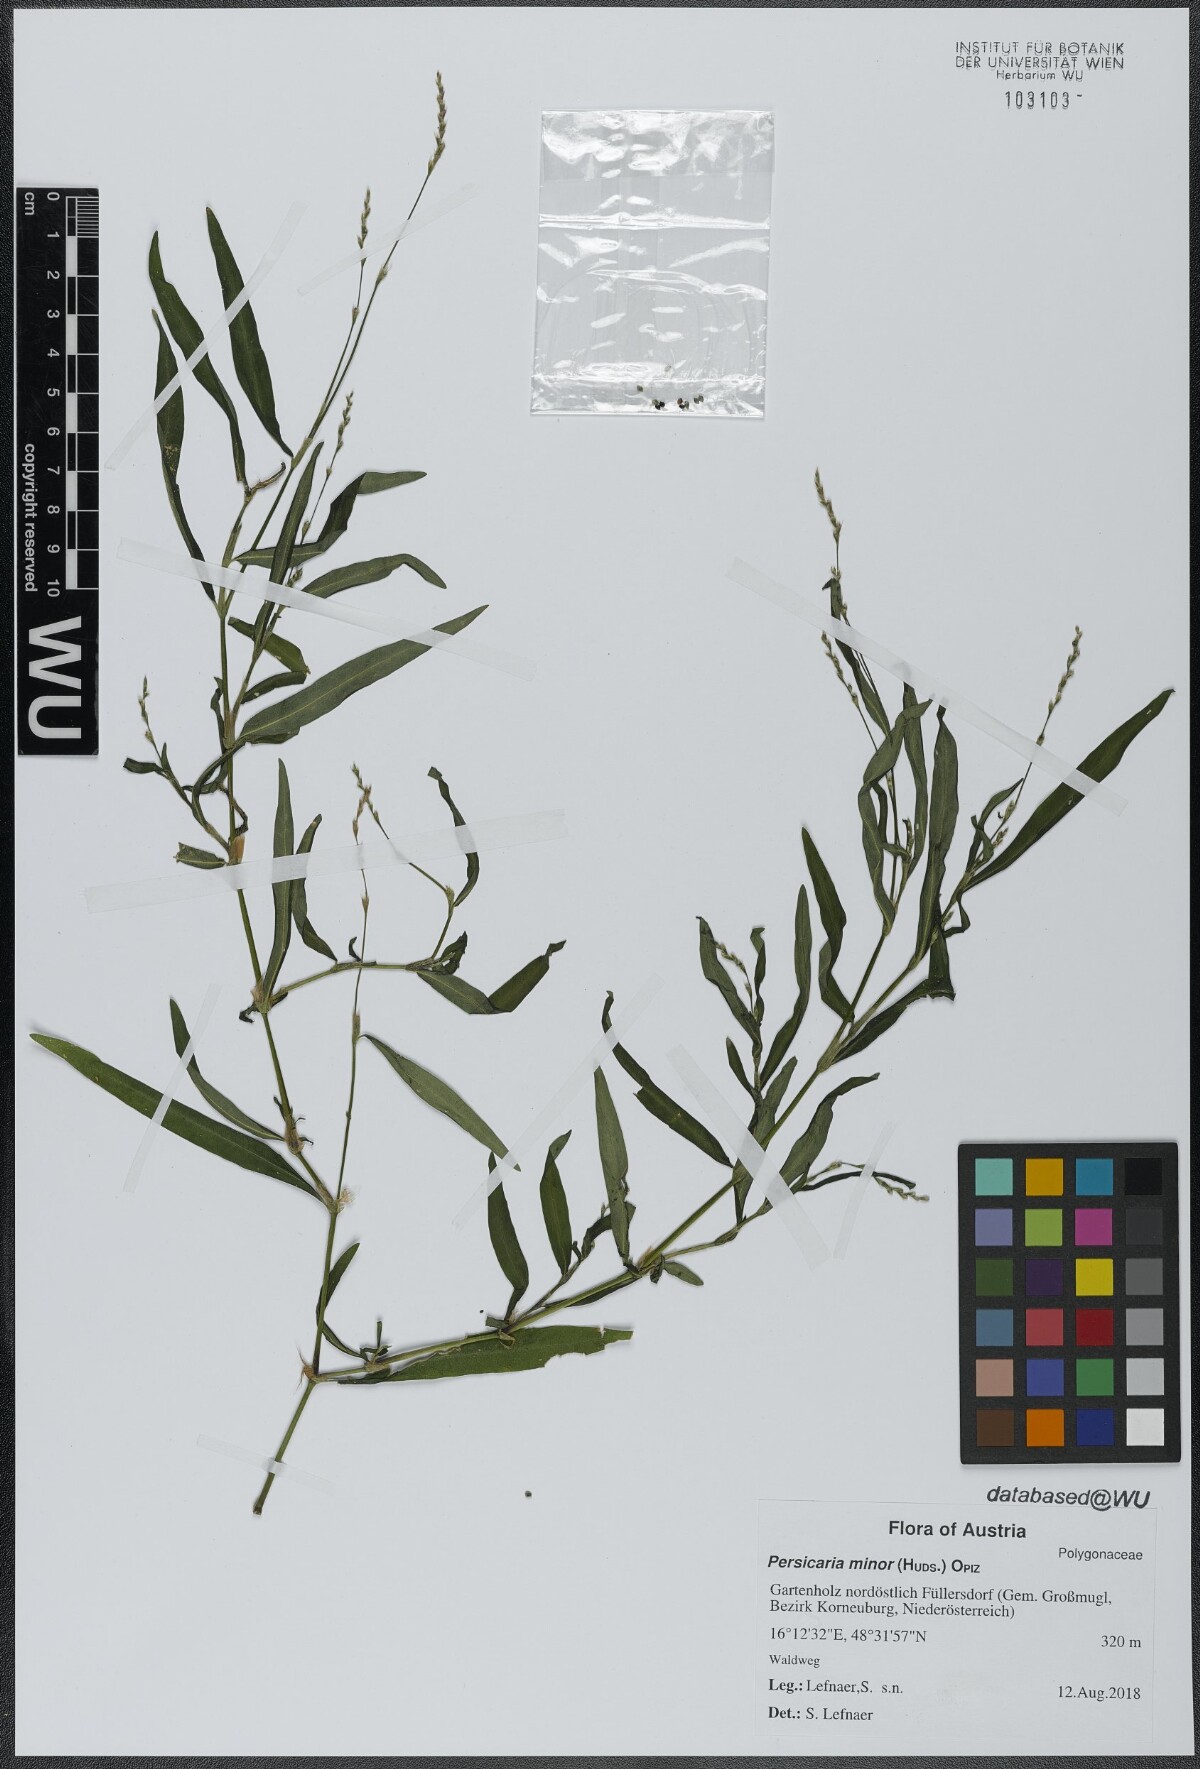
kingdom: Plantae
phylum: Tracheophyta
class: Magnoliopsida
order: Caryophyllales
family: Polygonaceae
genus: Persicaria
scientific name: Persicaria minor
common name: Small water-pepper
